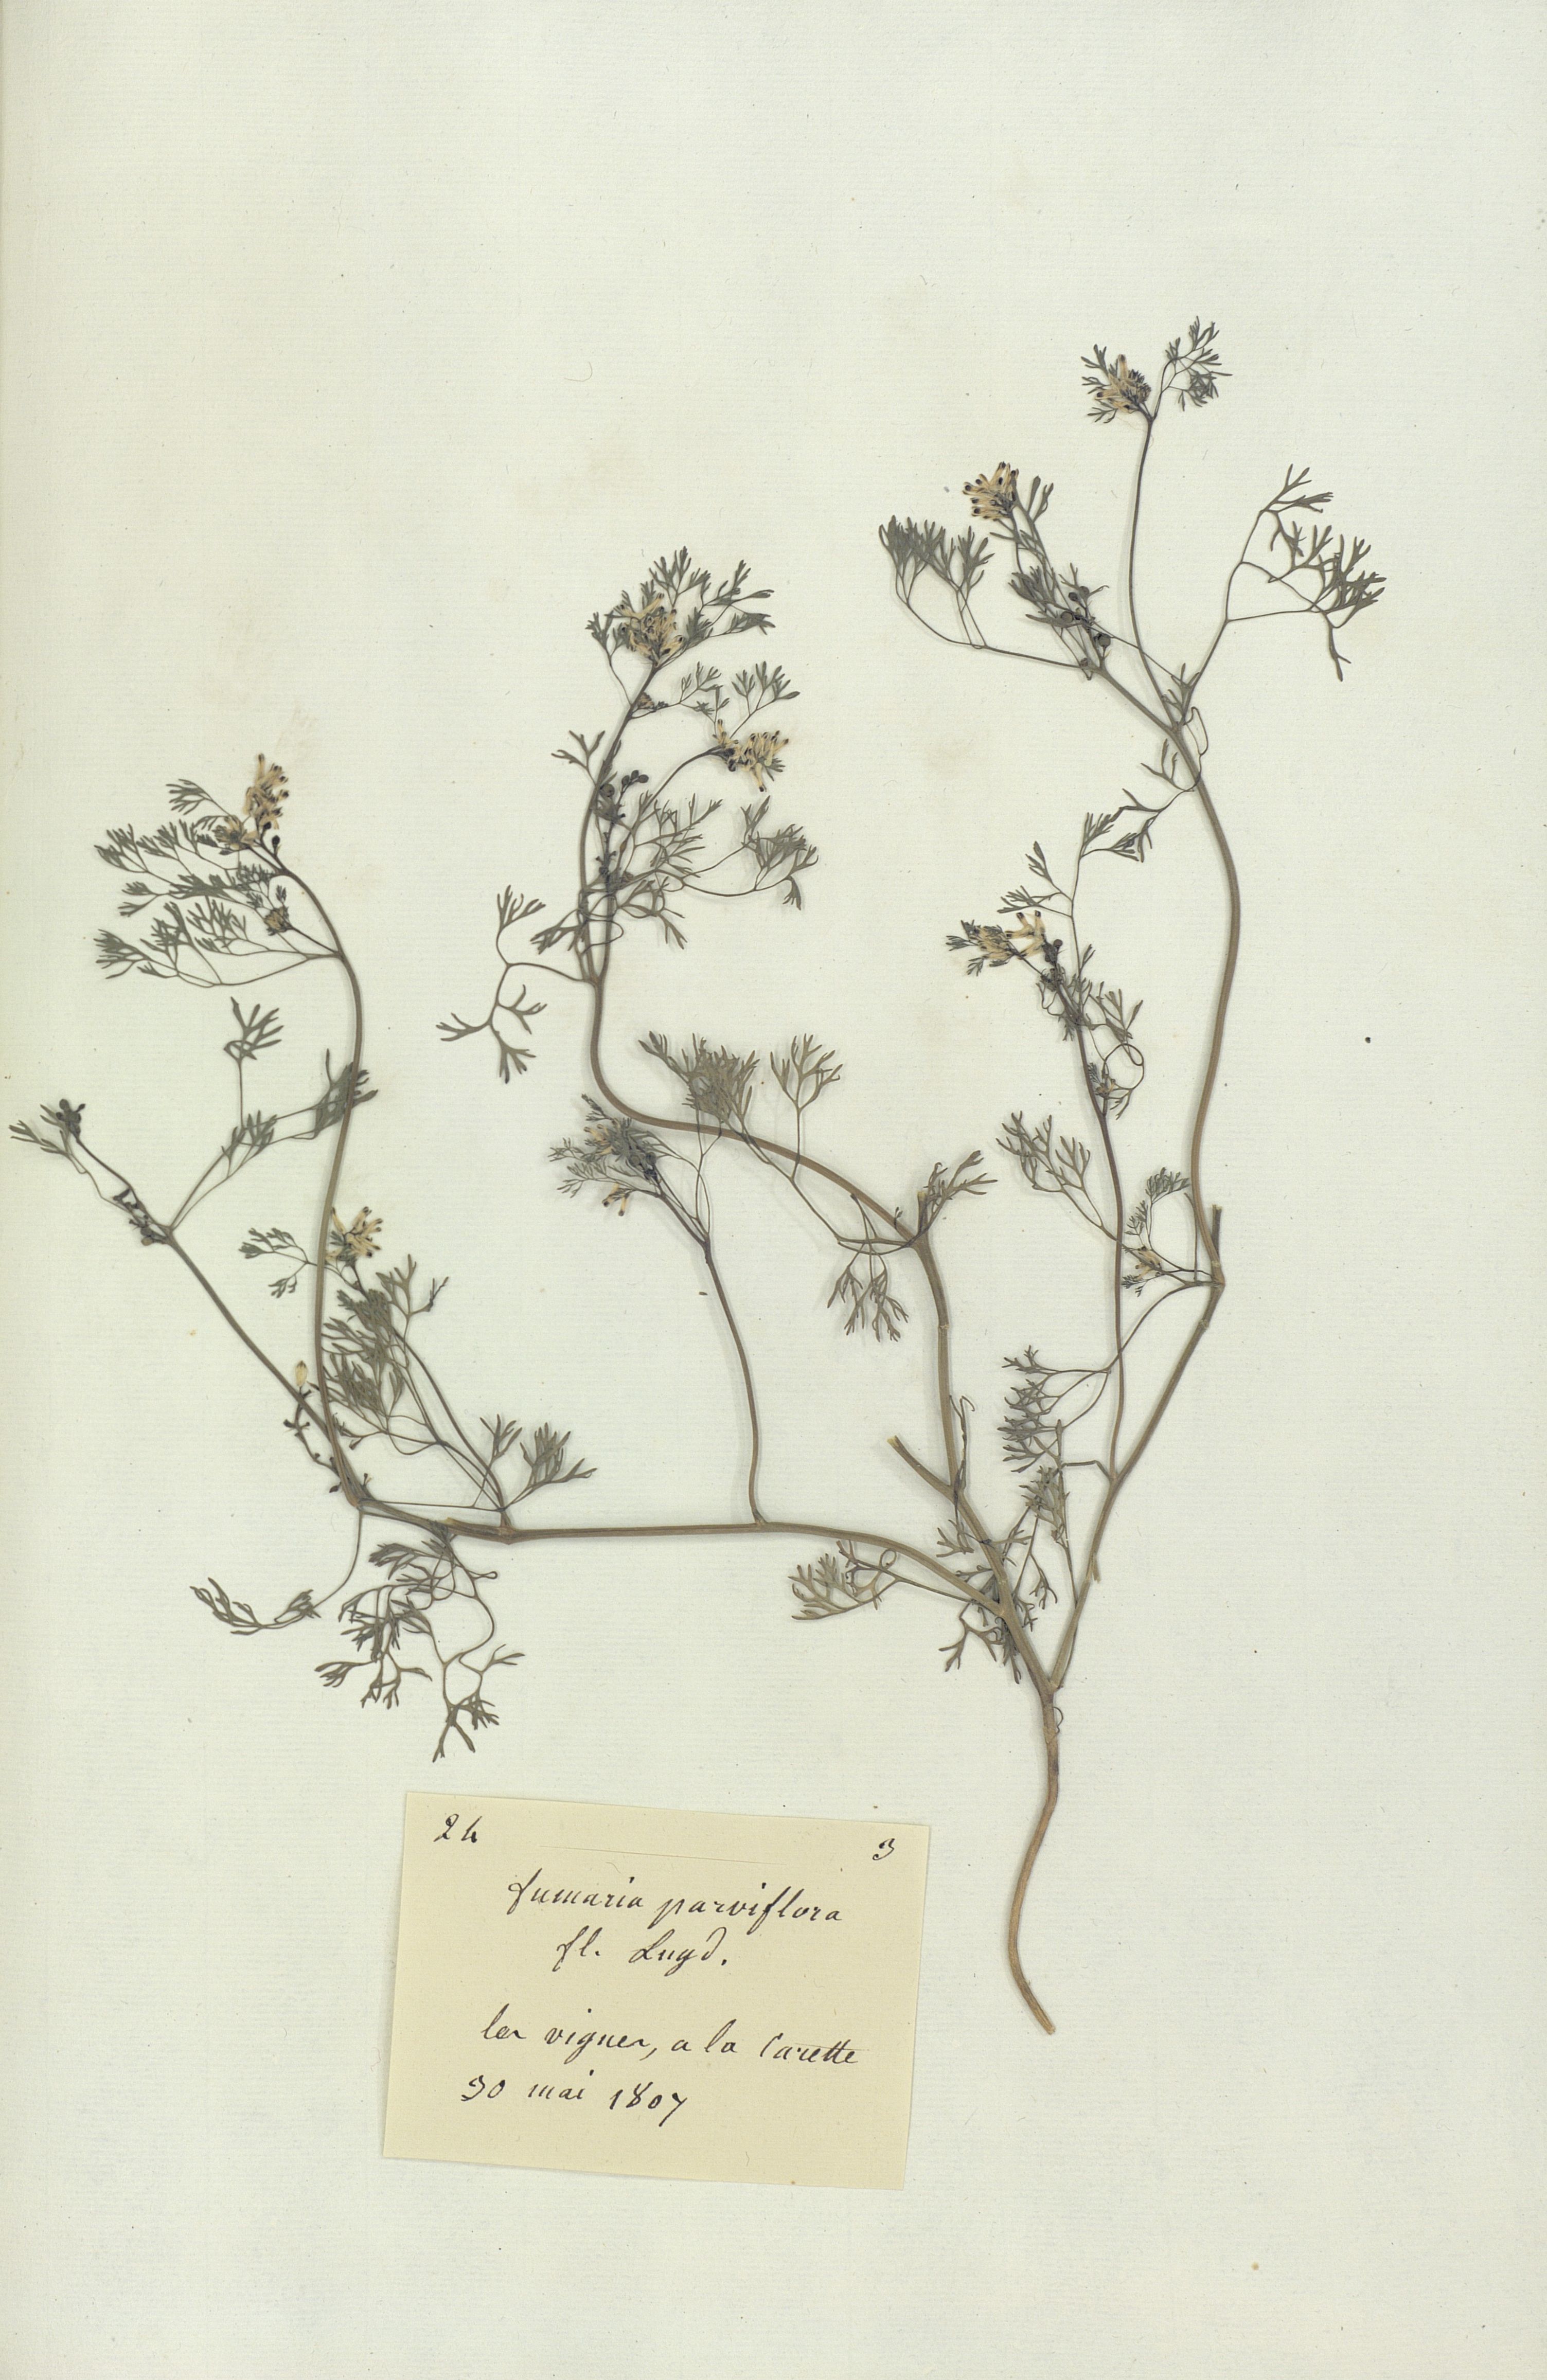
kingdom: Plantae
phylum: Tracheophyta
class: Magnoliopsida
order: Ranunculales
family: Papaveraceae
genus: Fumaria
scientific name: Fumaria parviflora
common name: Fine-leaved fumitory
